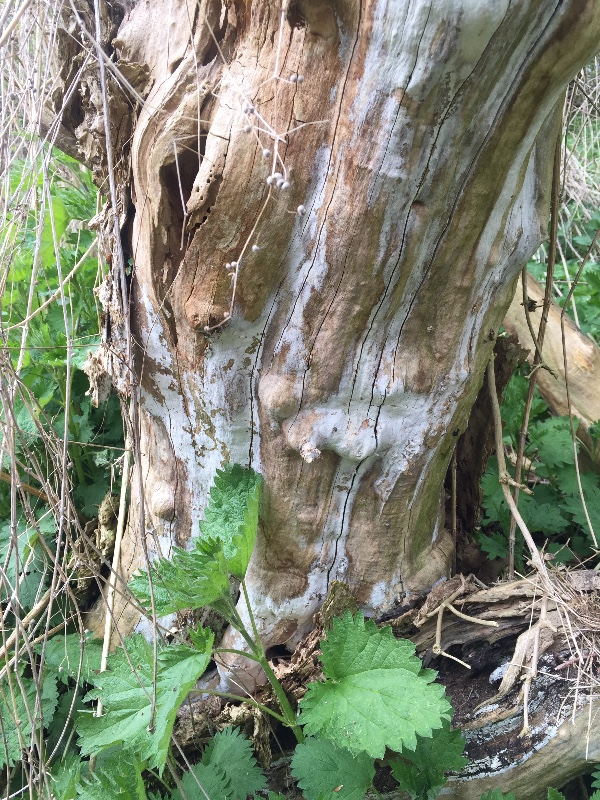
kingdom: Fungi
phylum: Basidiomycota
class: Agaricomycetes
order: Corticiales
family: Corticiaceae
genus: Lyomyces
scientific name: Lyomyces sambuci
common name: almindelig hyldehinde
